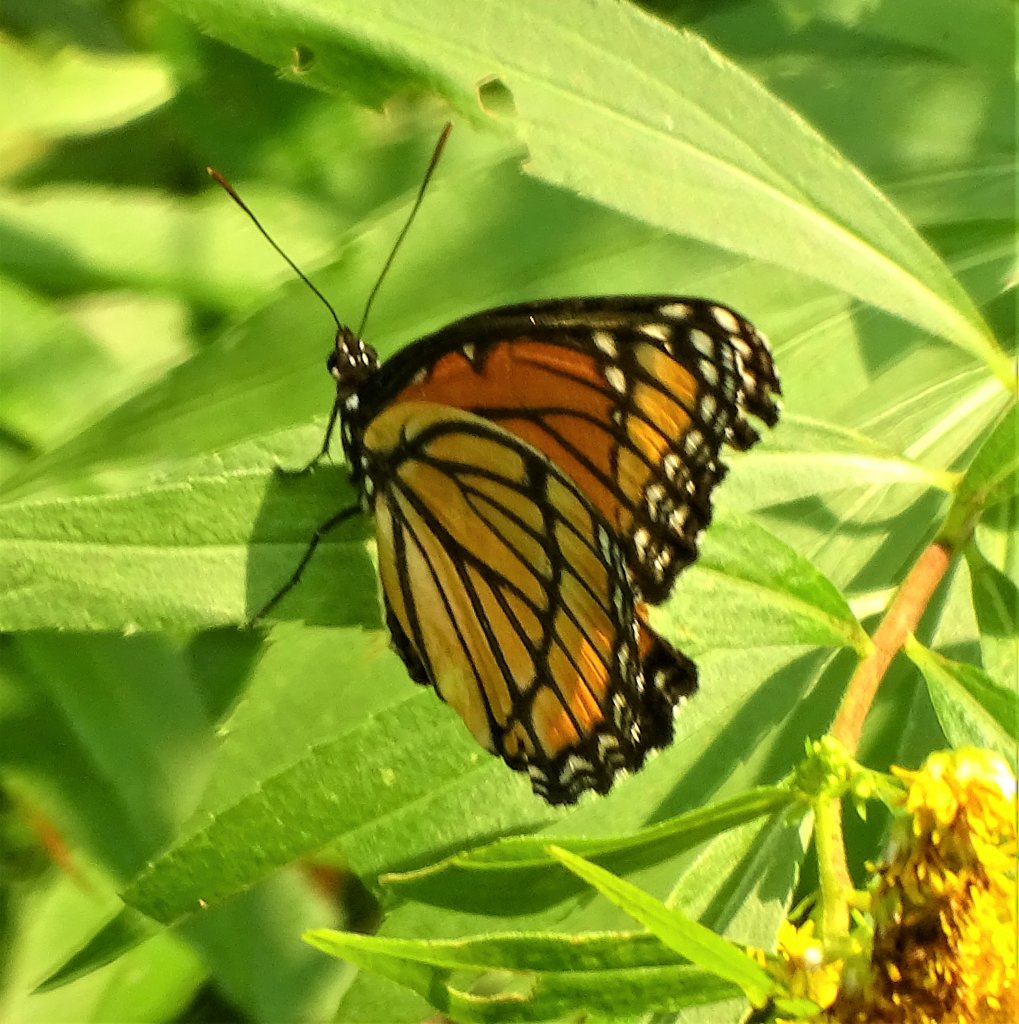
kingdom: Animalia
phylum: Arthropoda
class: Insecta
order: Lepidoptera
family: Nymphalidae
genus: Limenitis
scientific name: Limenitis archippus
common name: Viceroy
